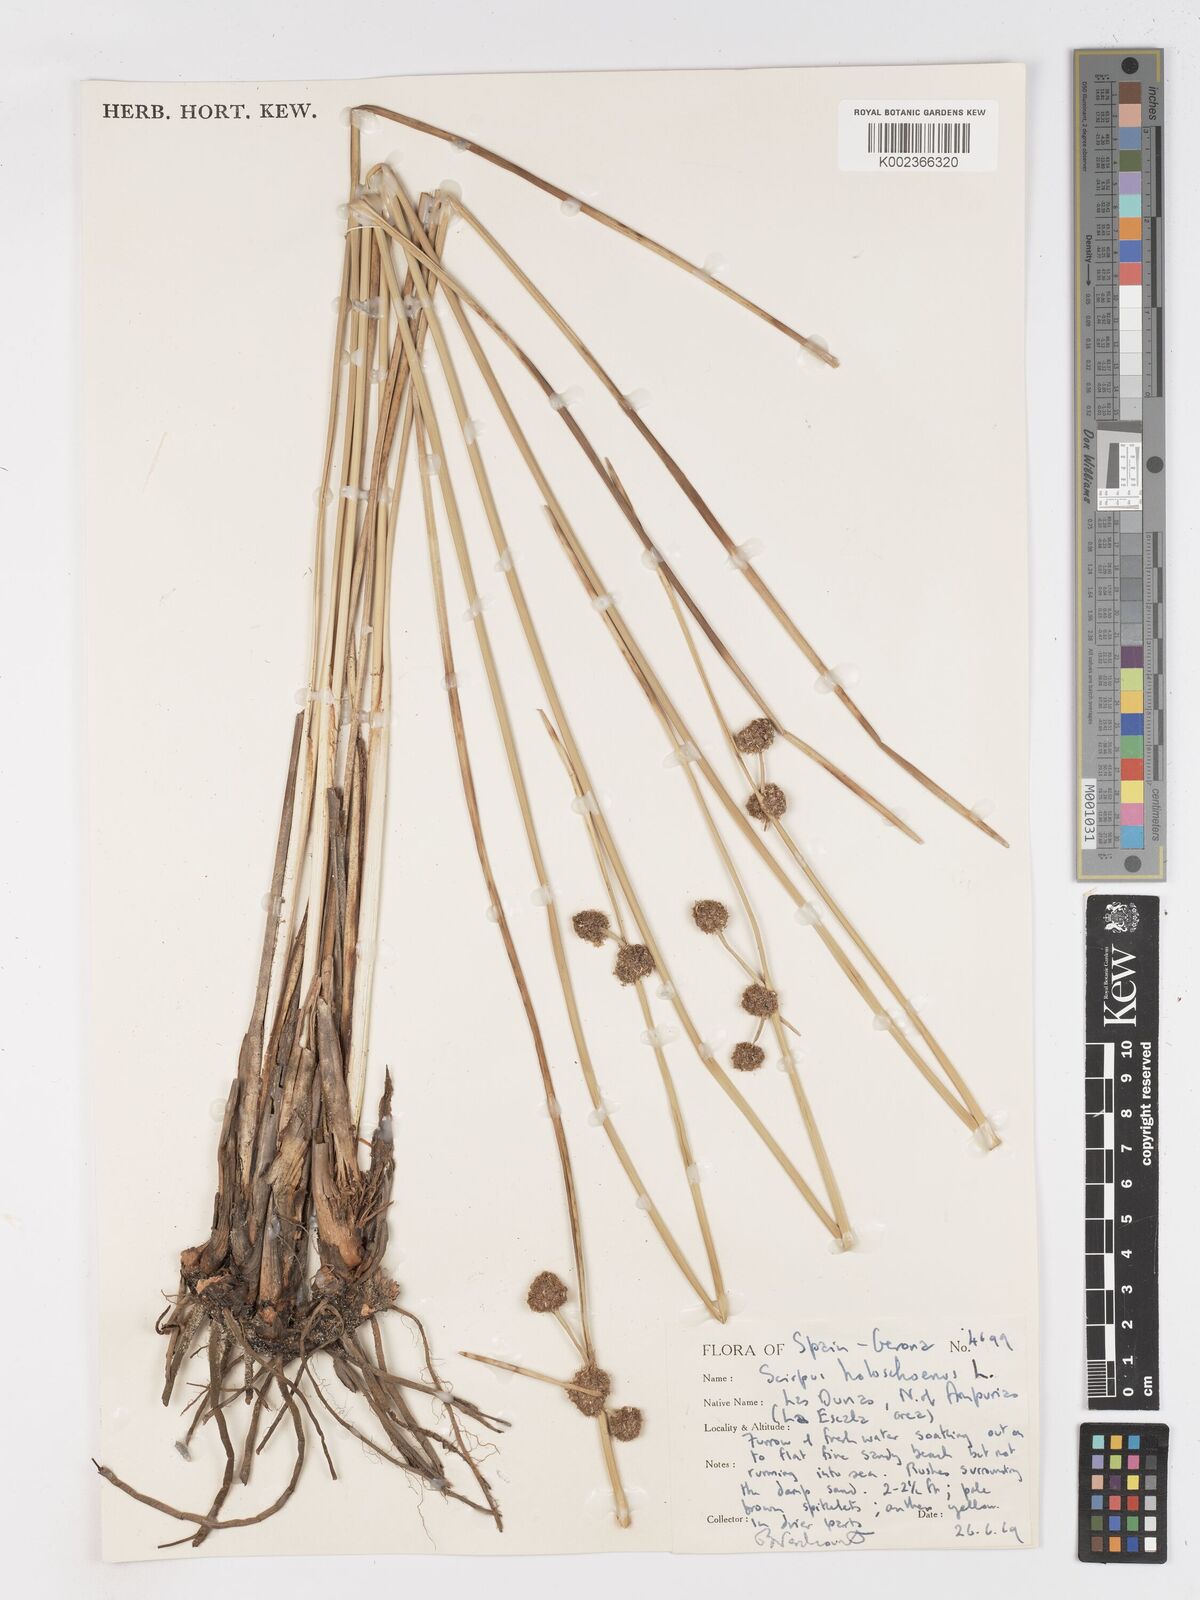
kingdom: Plantae
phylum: Tracheophyta
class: Liliopsida
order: Poales
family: Cyperaceae
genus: Scirpoides
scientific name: Scirpoides holoschoenus
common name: Round-headed club-rush
